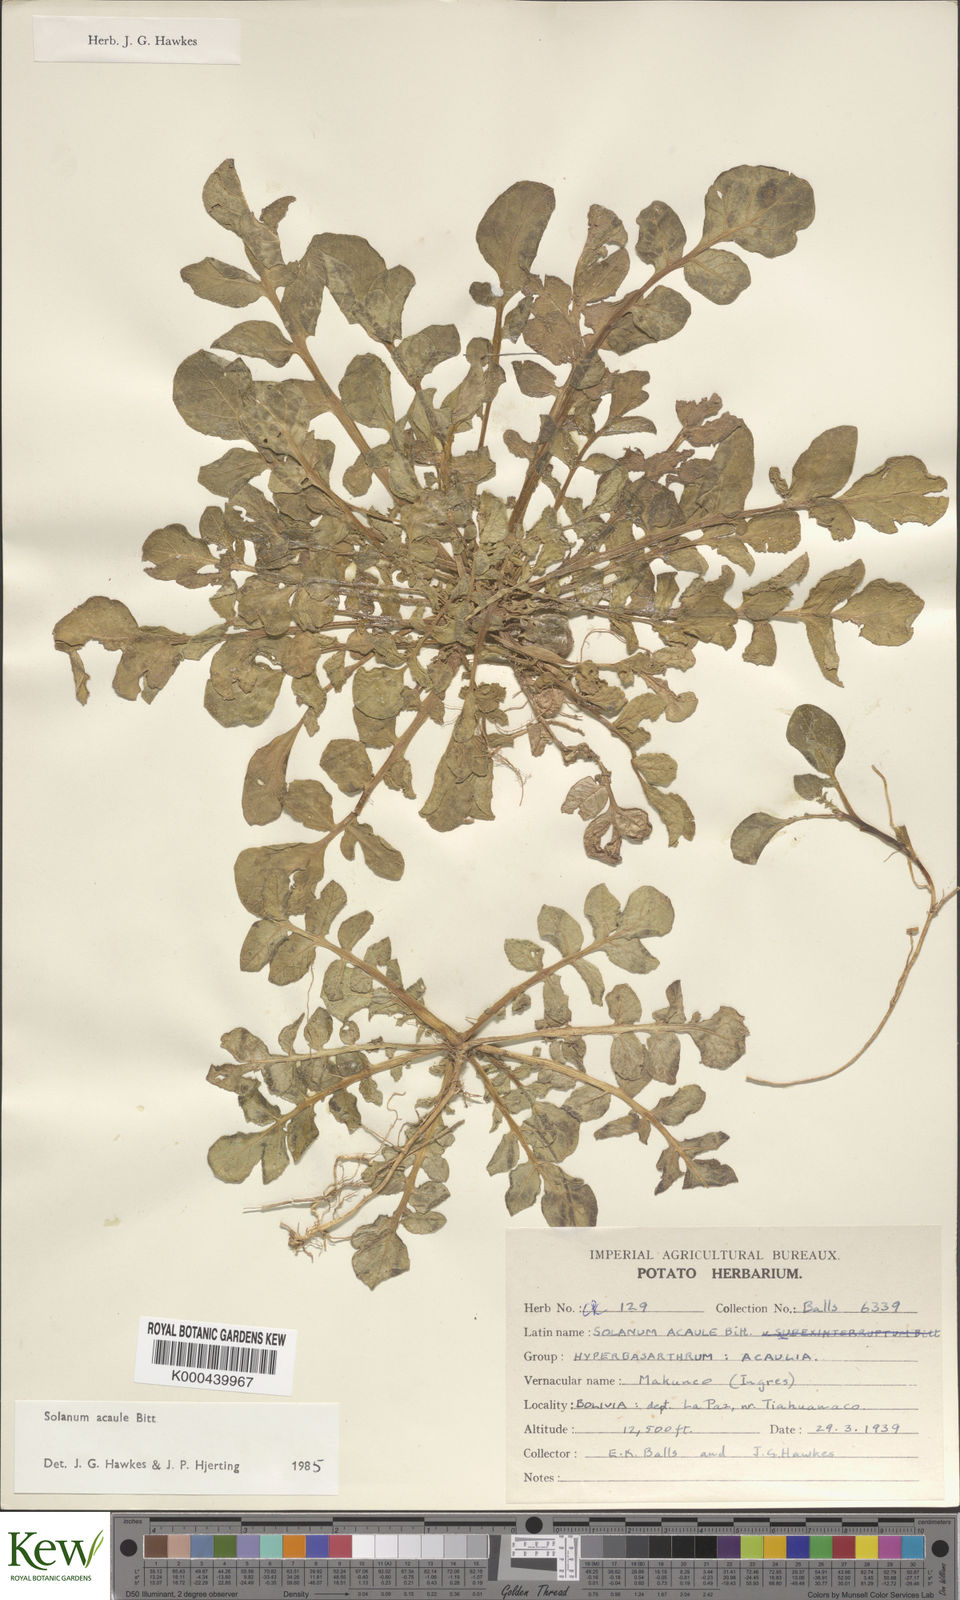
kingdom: Plantae
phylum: Tracheophyta
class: Magnoliopsida
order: Solanales
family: Solanaceae
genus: Solanum
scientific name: Solanum acaule
